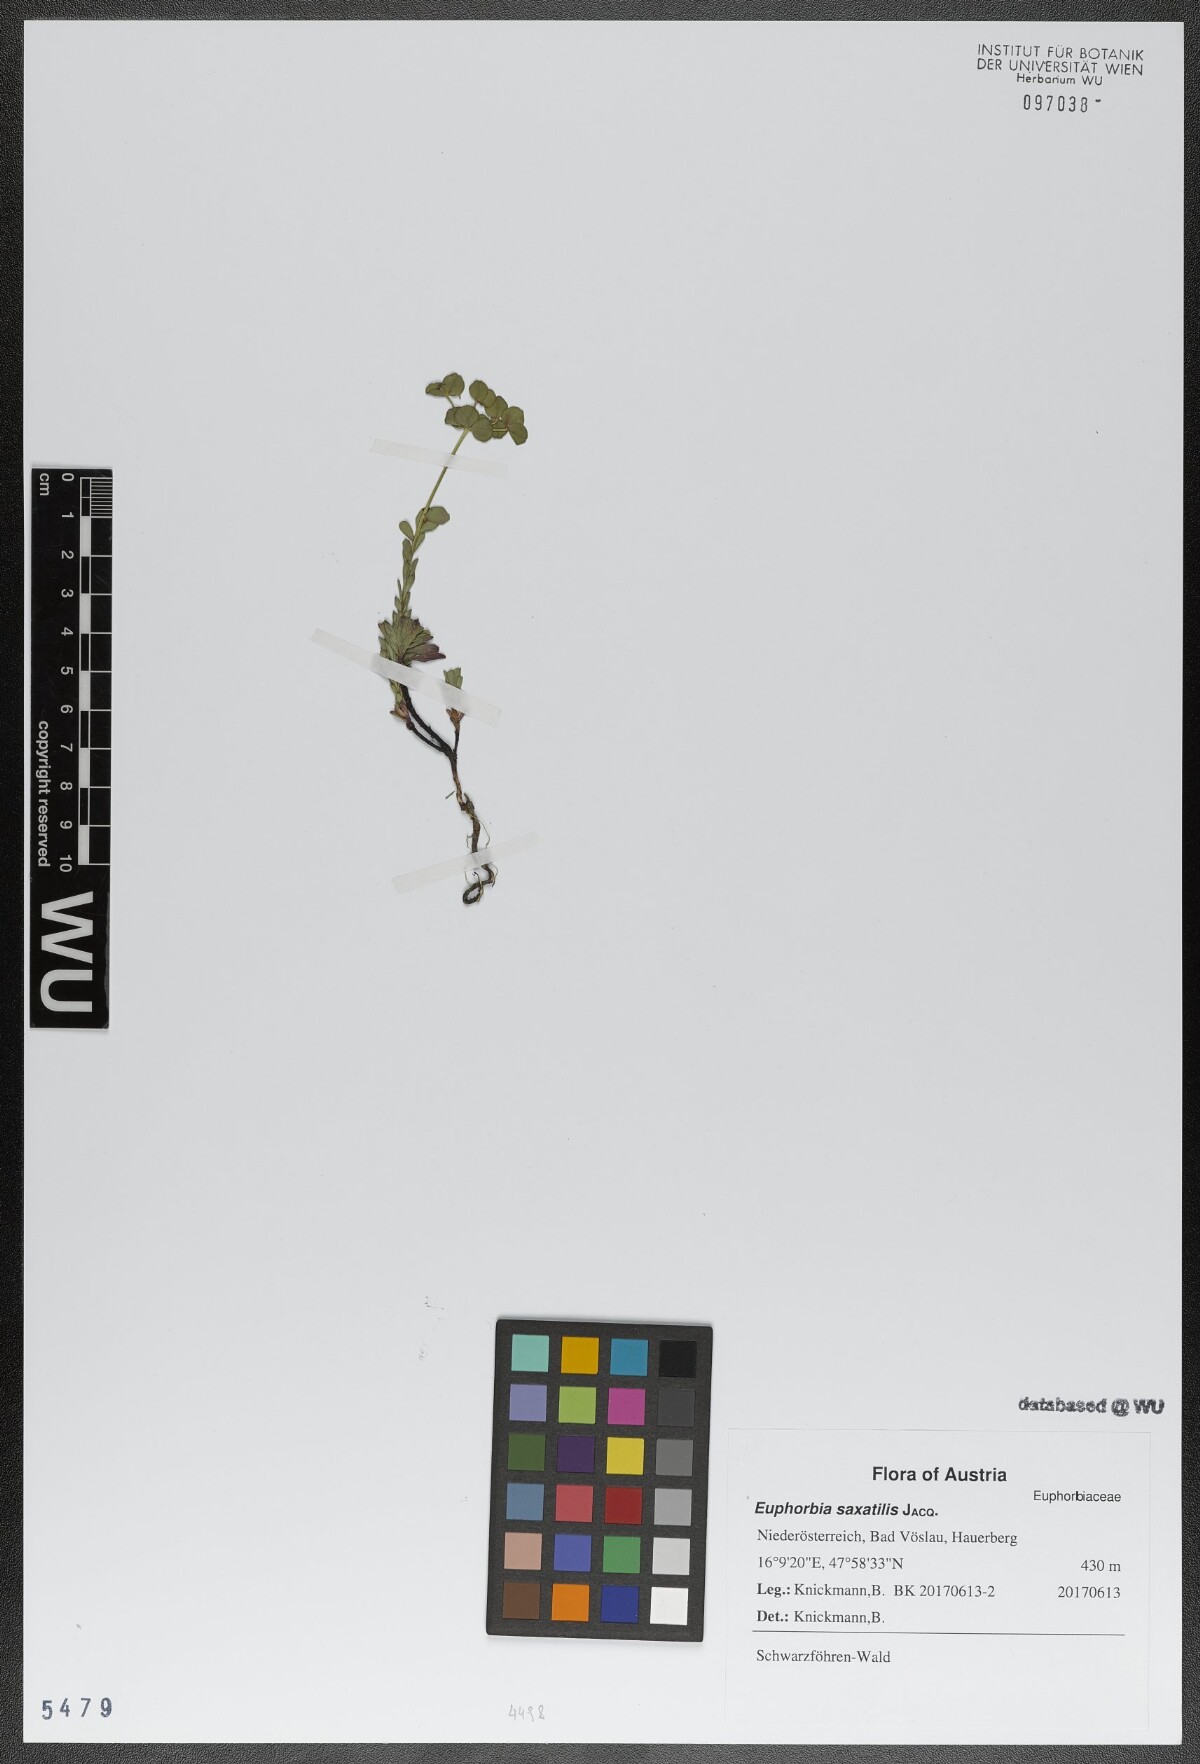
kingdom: Plantae
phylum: Tracheophyta
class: Magnoliopsida
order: Malpighiales
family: Euphorbiaceae
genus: Euphorbia
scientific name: Euphorbia saxatilis
